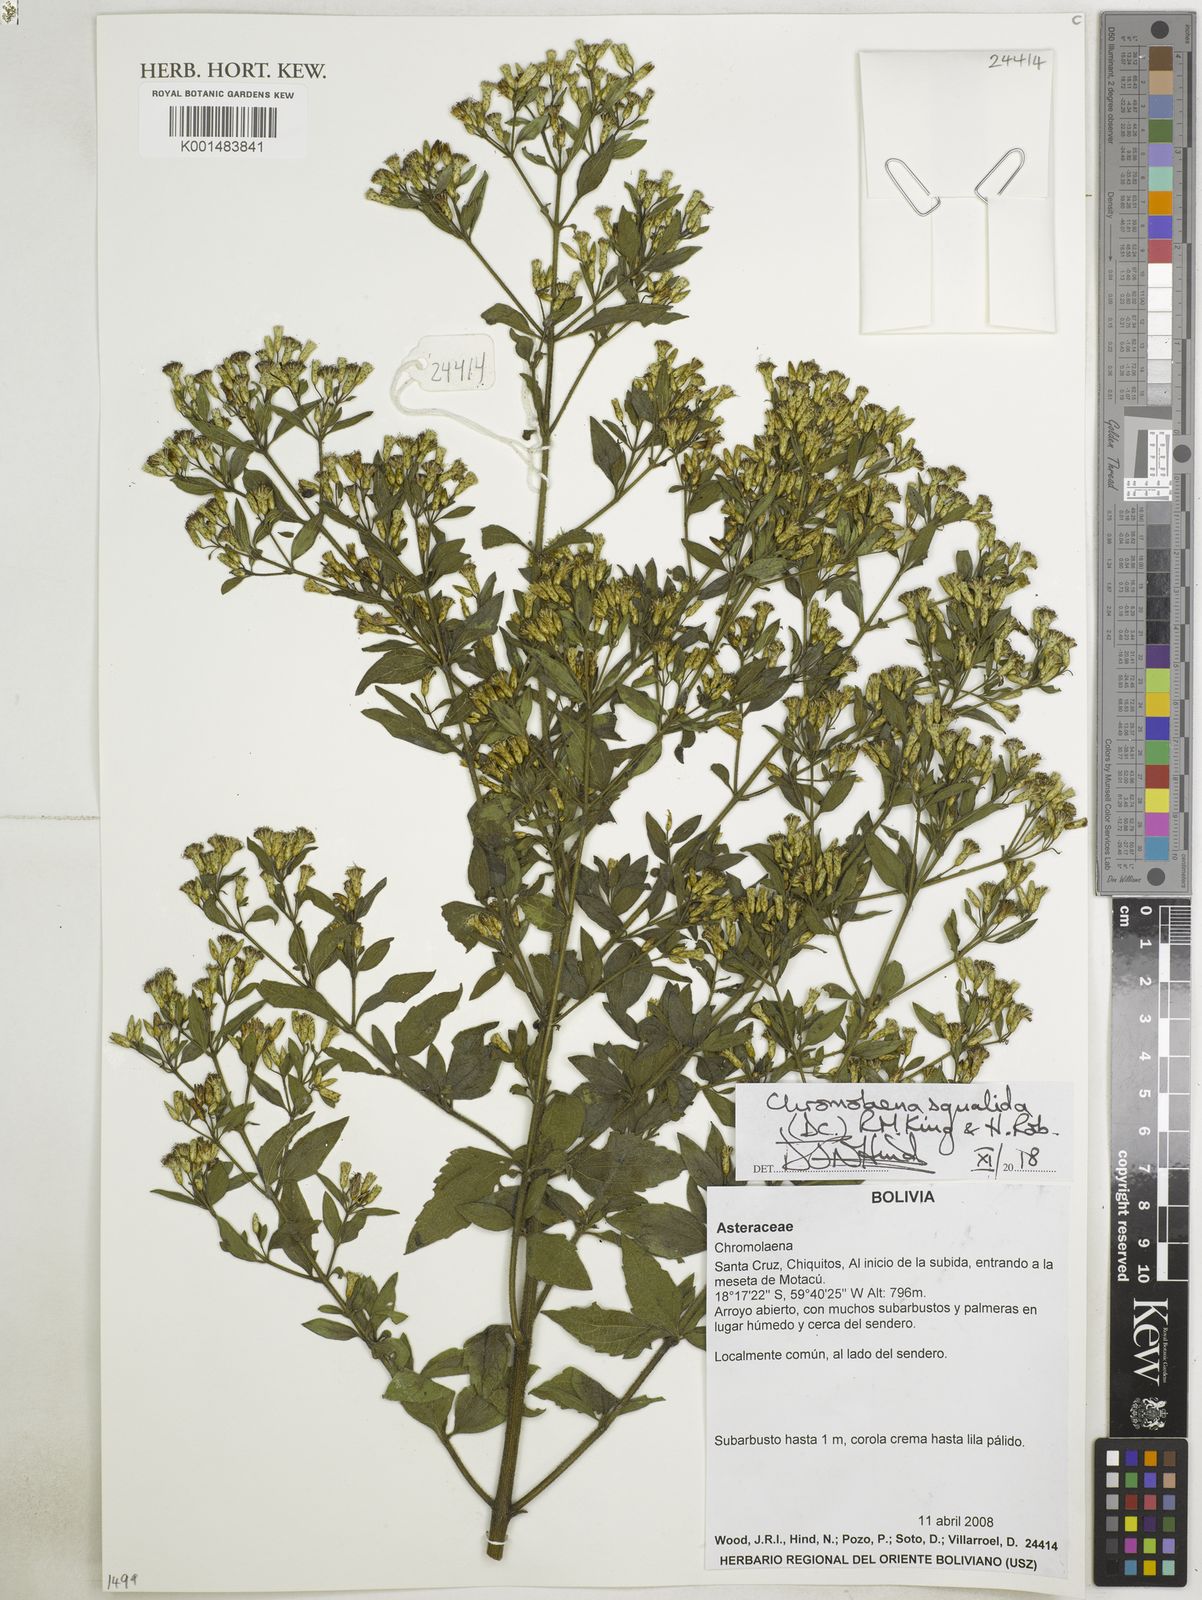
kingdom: Plantae
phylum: Tracheophyta
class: Magnoliopsida
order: Asterales
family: Asteraceae
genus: Chromolaena
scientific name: Chromolaena squalida
